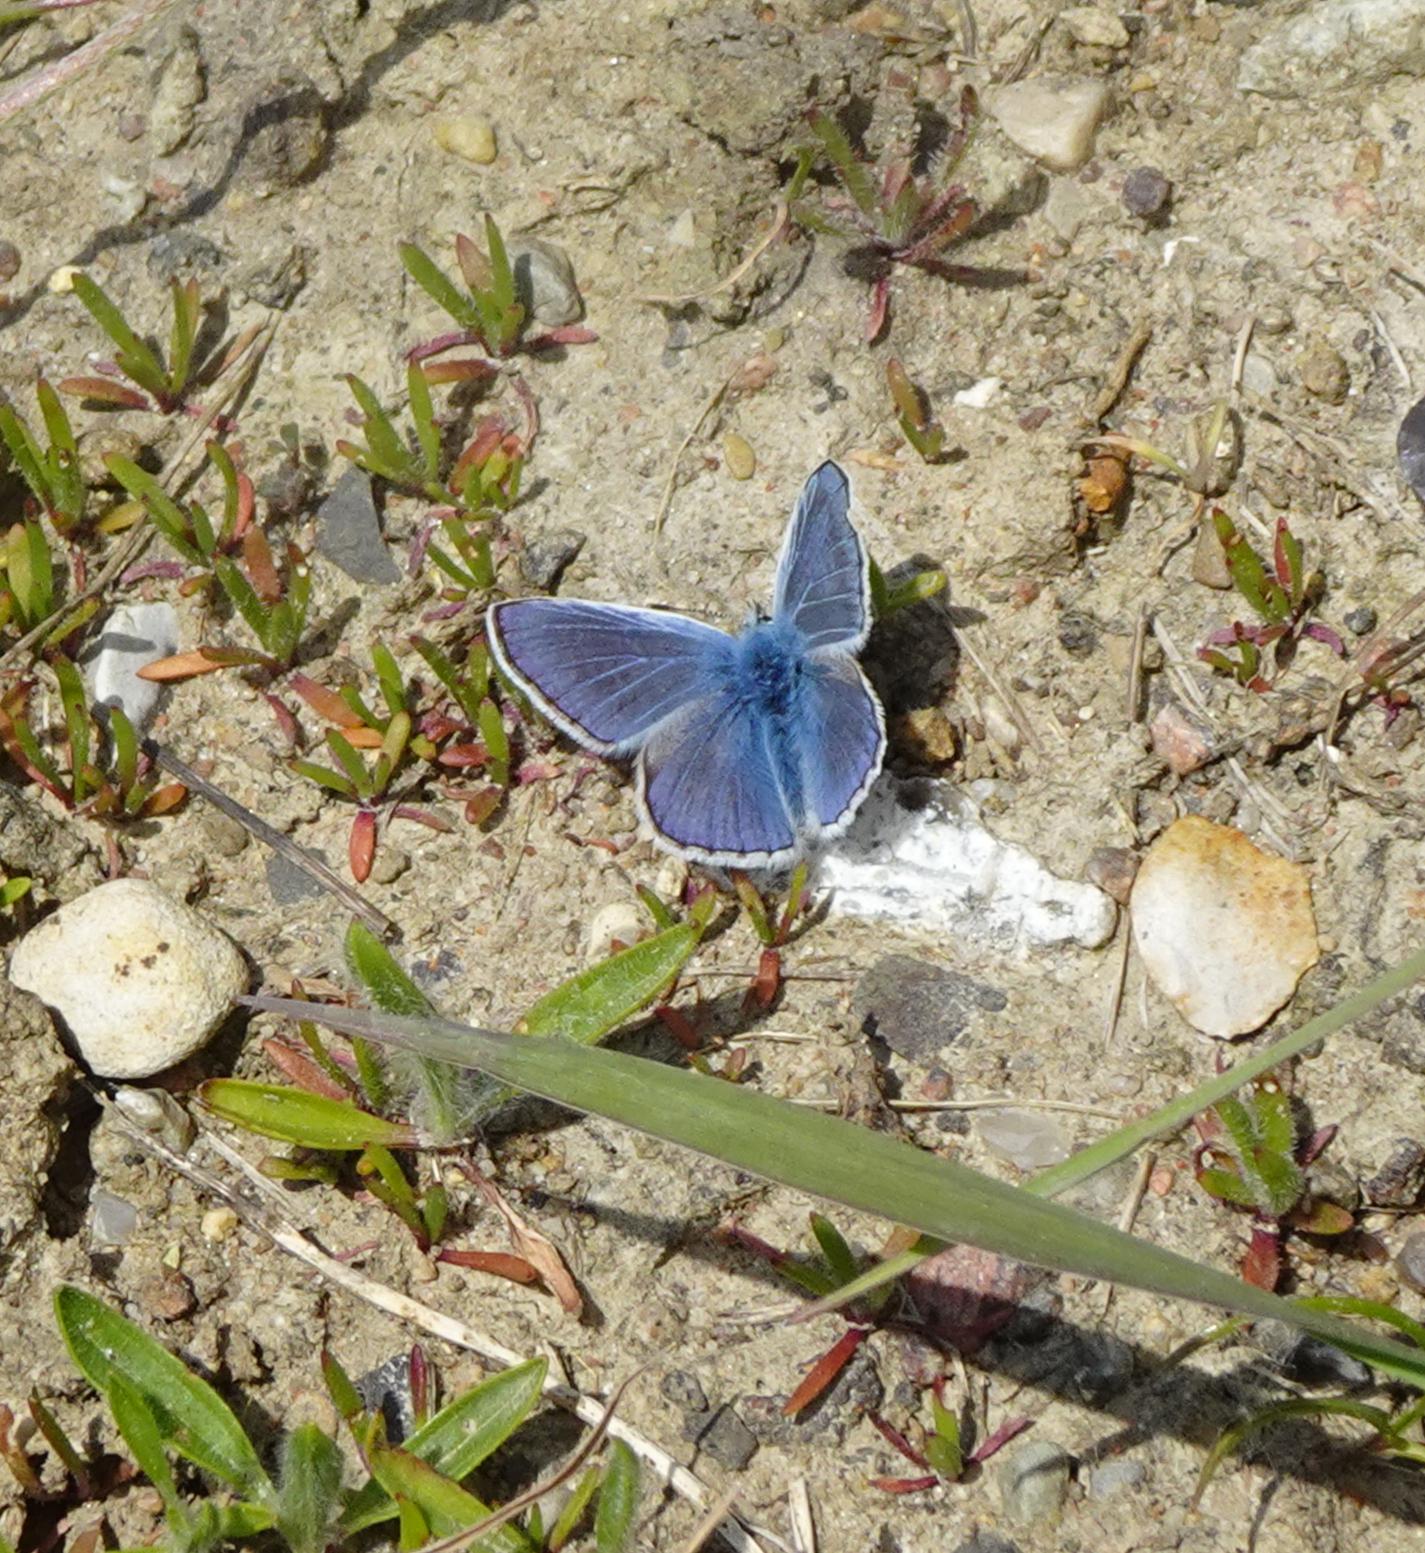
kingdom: Animalia
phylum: Arthropoda
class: Insecta
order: Lepidoptera
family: Lycaenidae
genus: Polyommatus
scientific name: Polyommatus icarus
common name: Almindelig blåfugl
